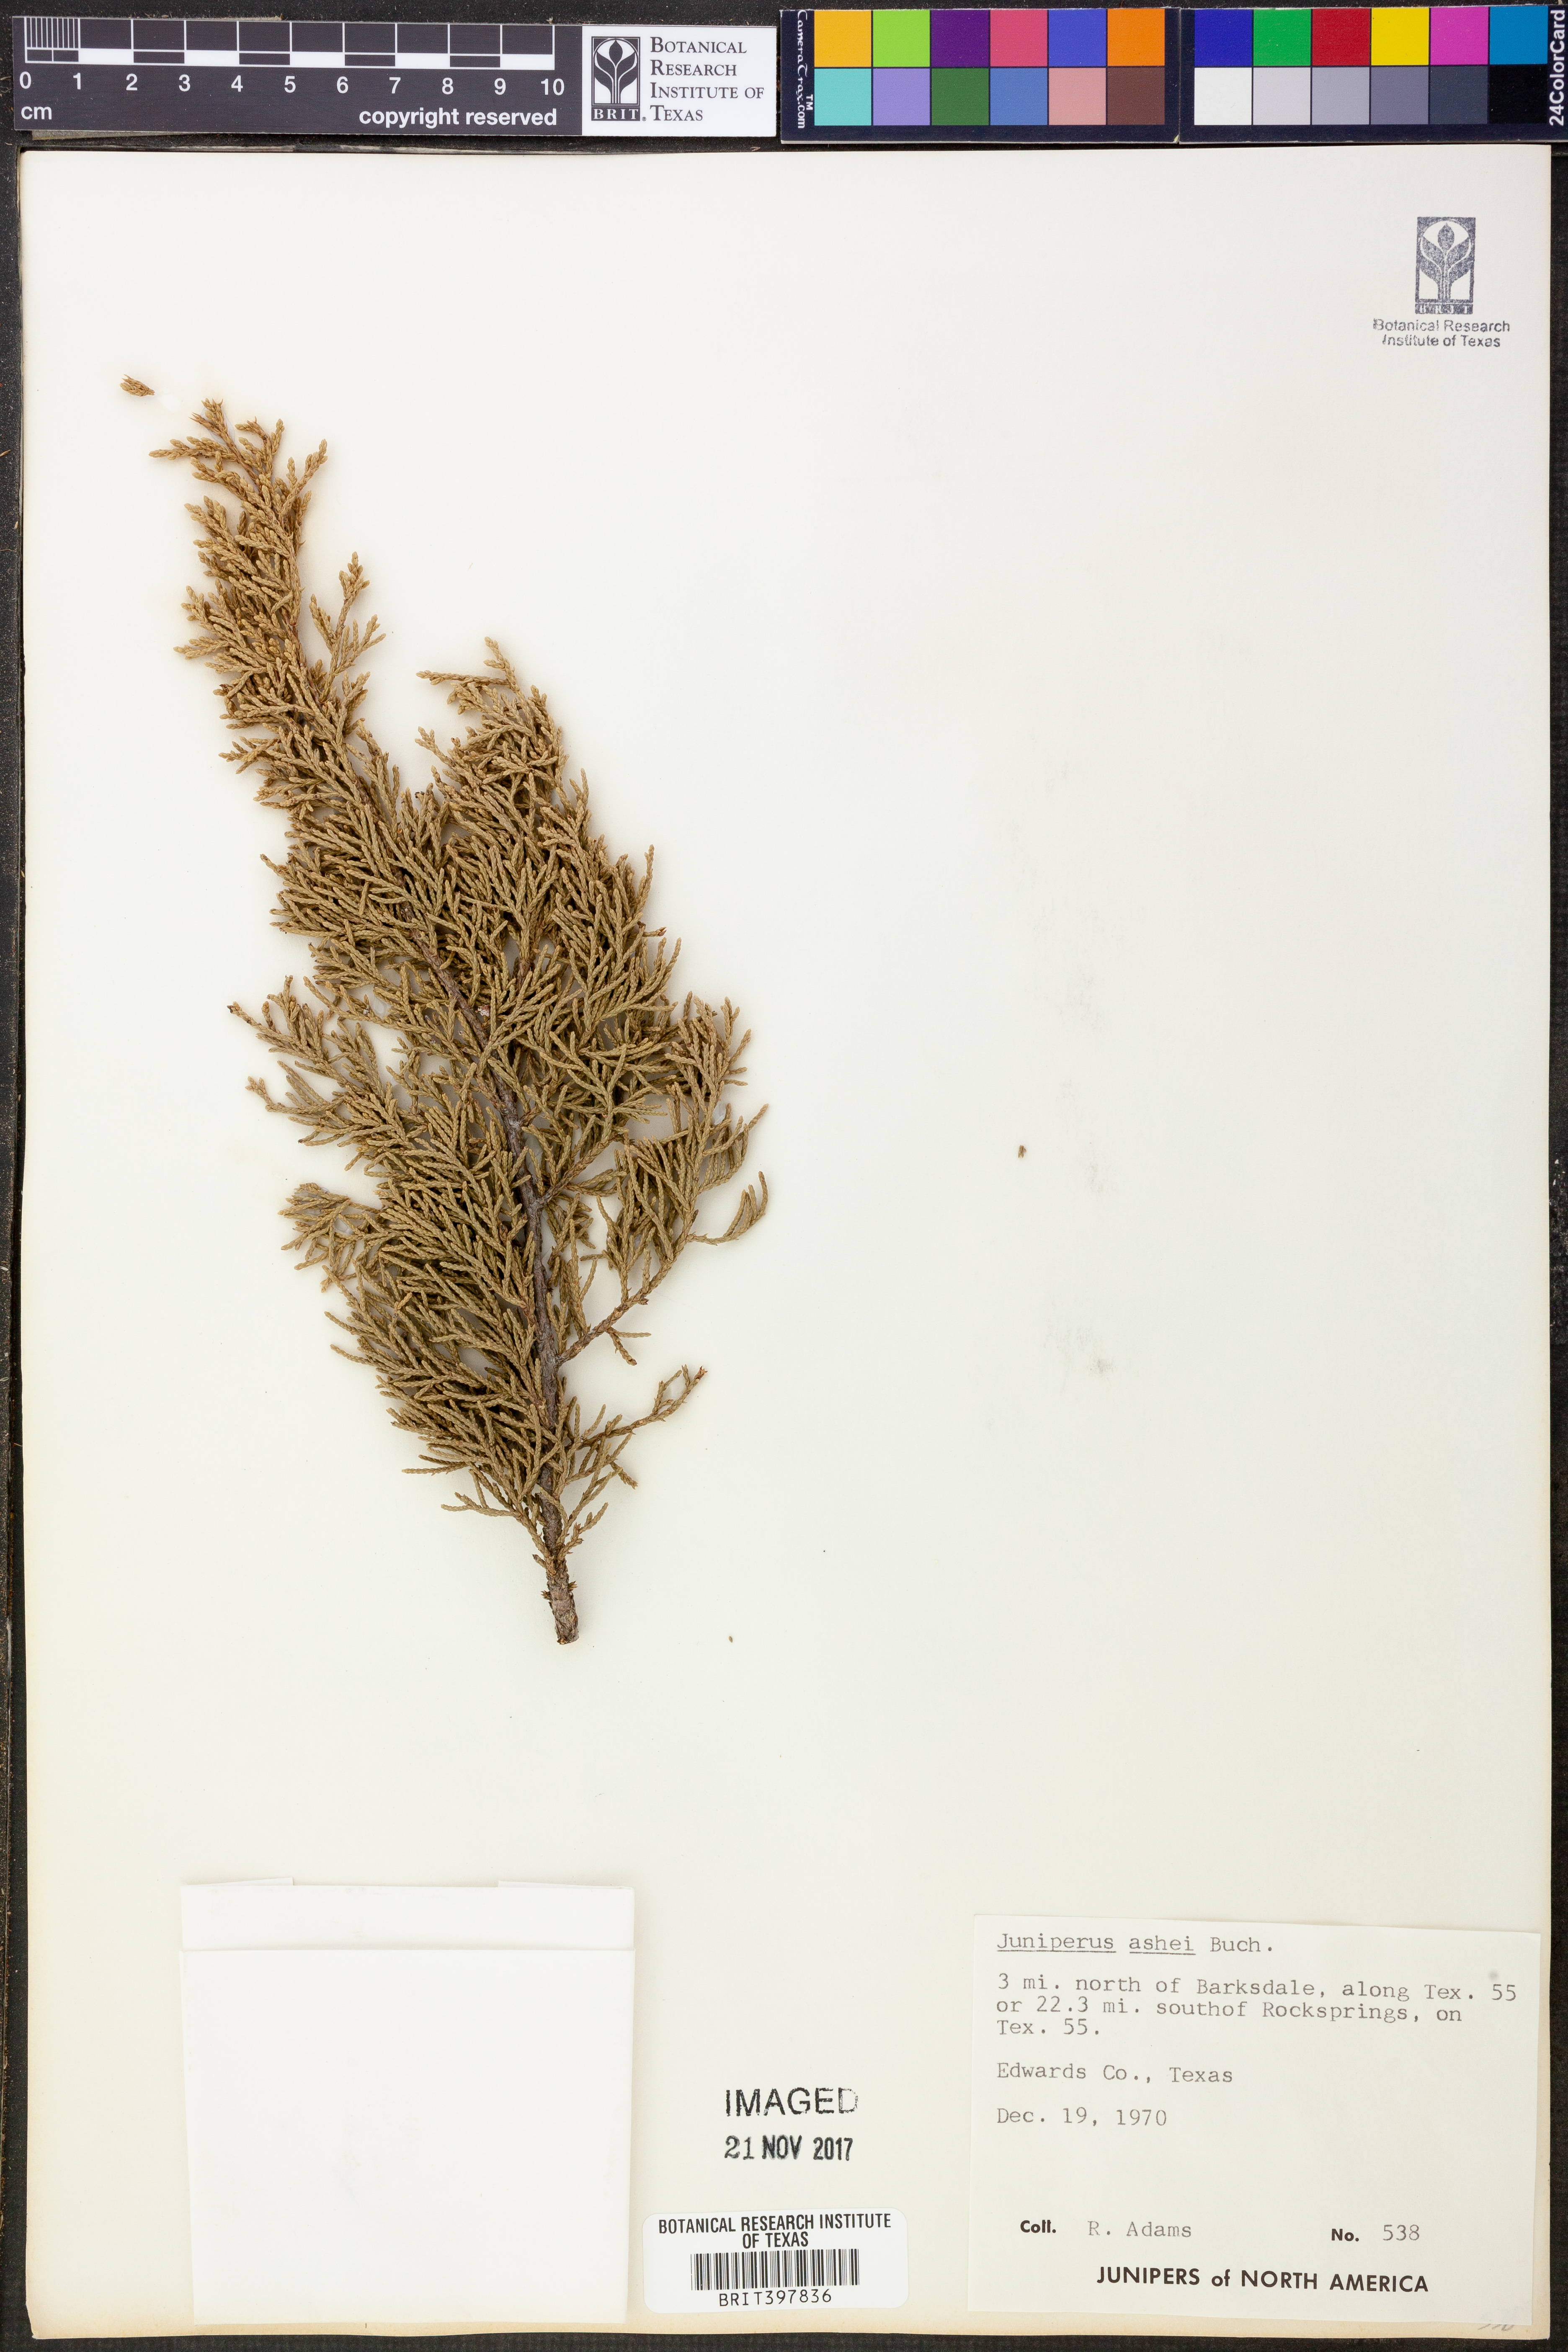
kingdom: Plantae
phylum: Tracheophyta
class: Pinopsida
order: Pinales
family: Cupressaceae
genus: Juniperus
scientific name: Juniperus ashei
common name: Mexican juniper
